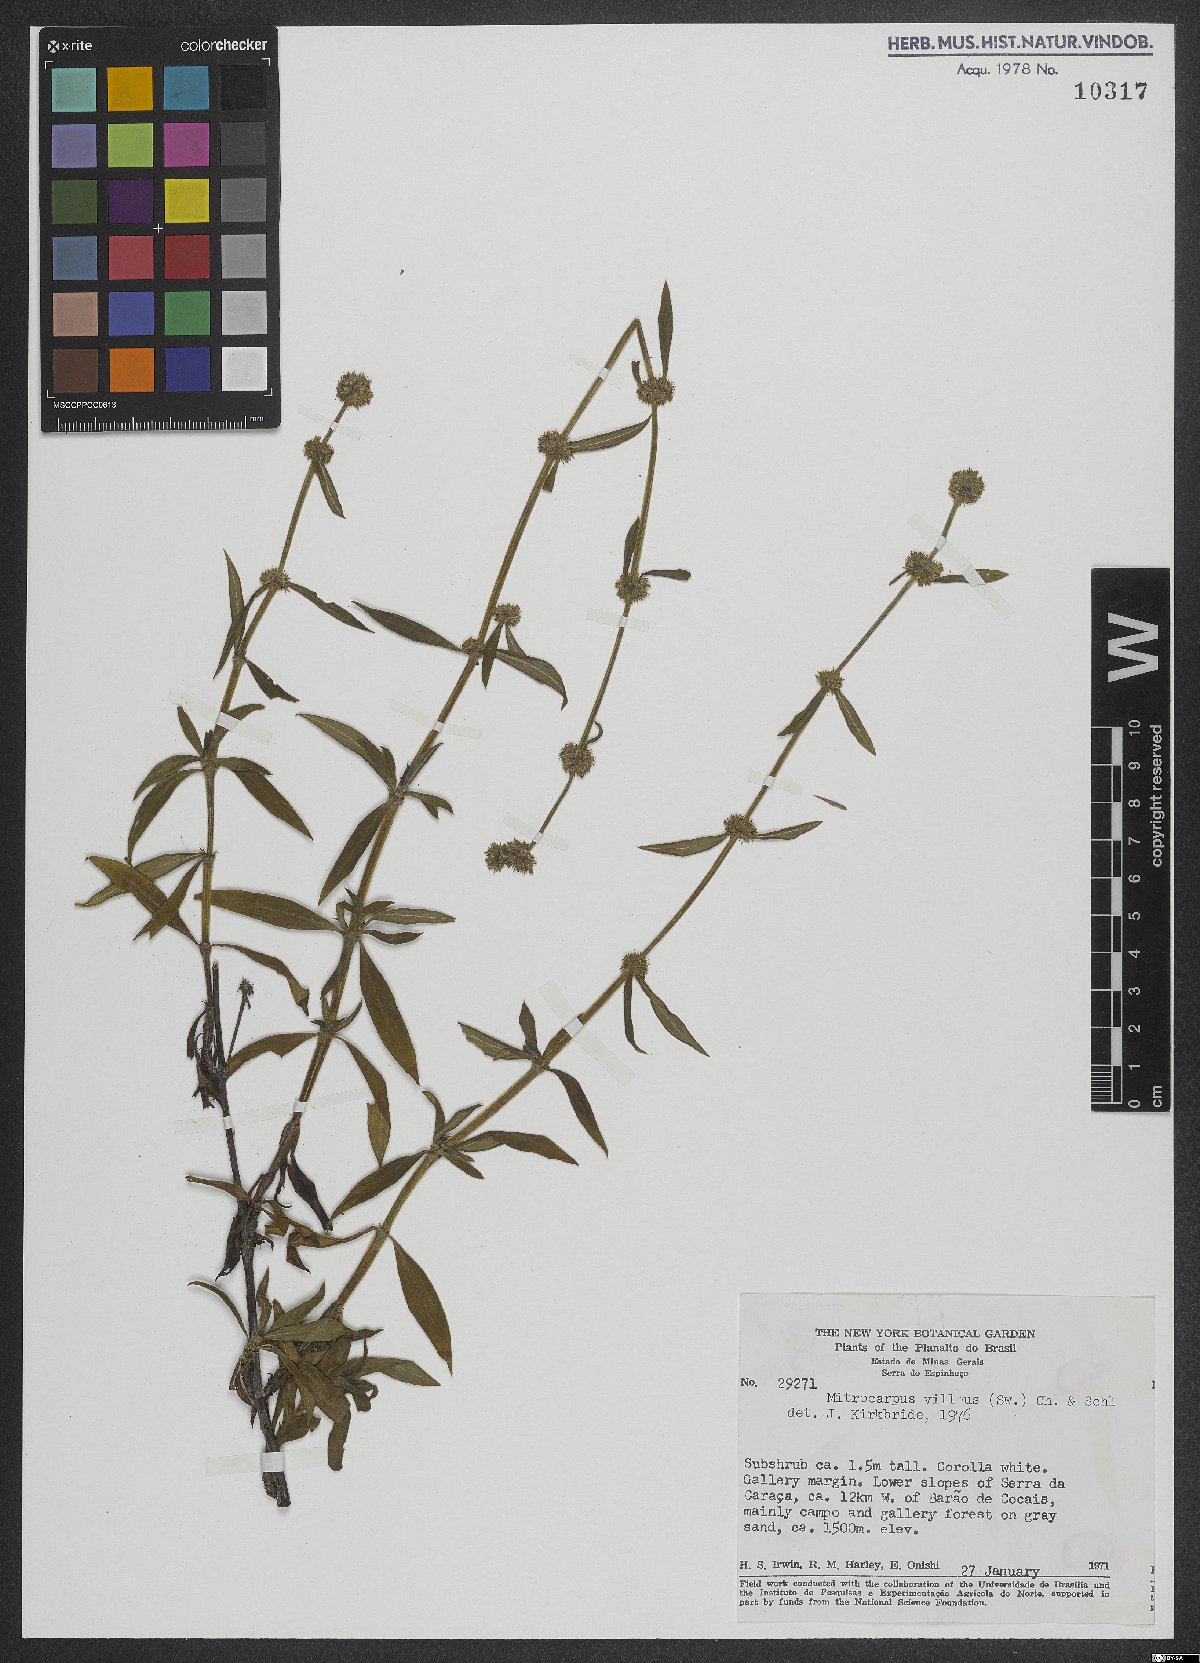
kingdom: Plantae
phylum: Tracheophyta
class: Magnoliopsida
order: Gentianales
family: Rubiaceae
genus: Mitracarpus
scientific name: Mitracarpus hirtus
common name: Tropical girdlepod
